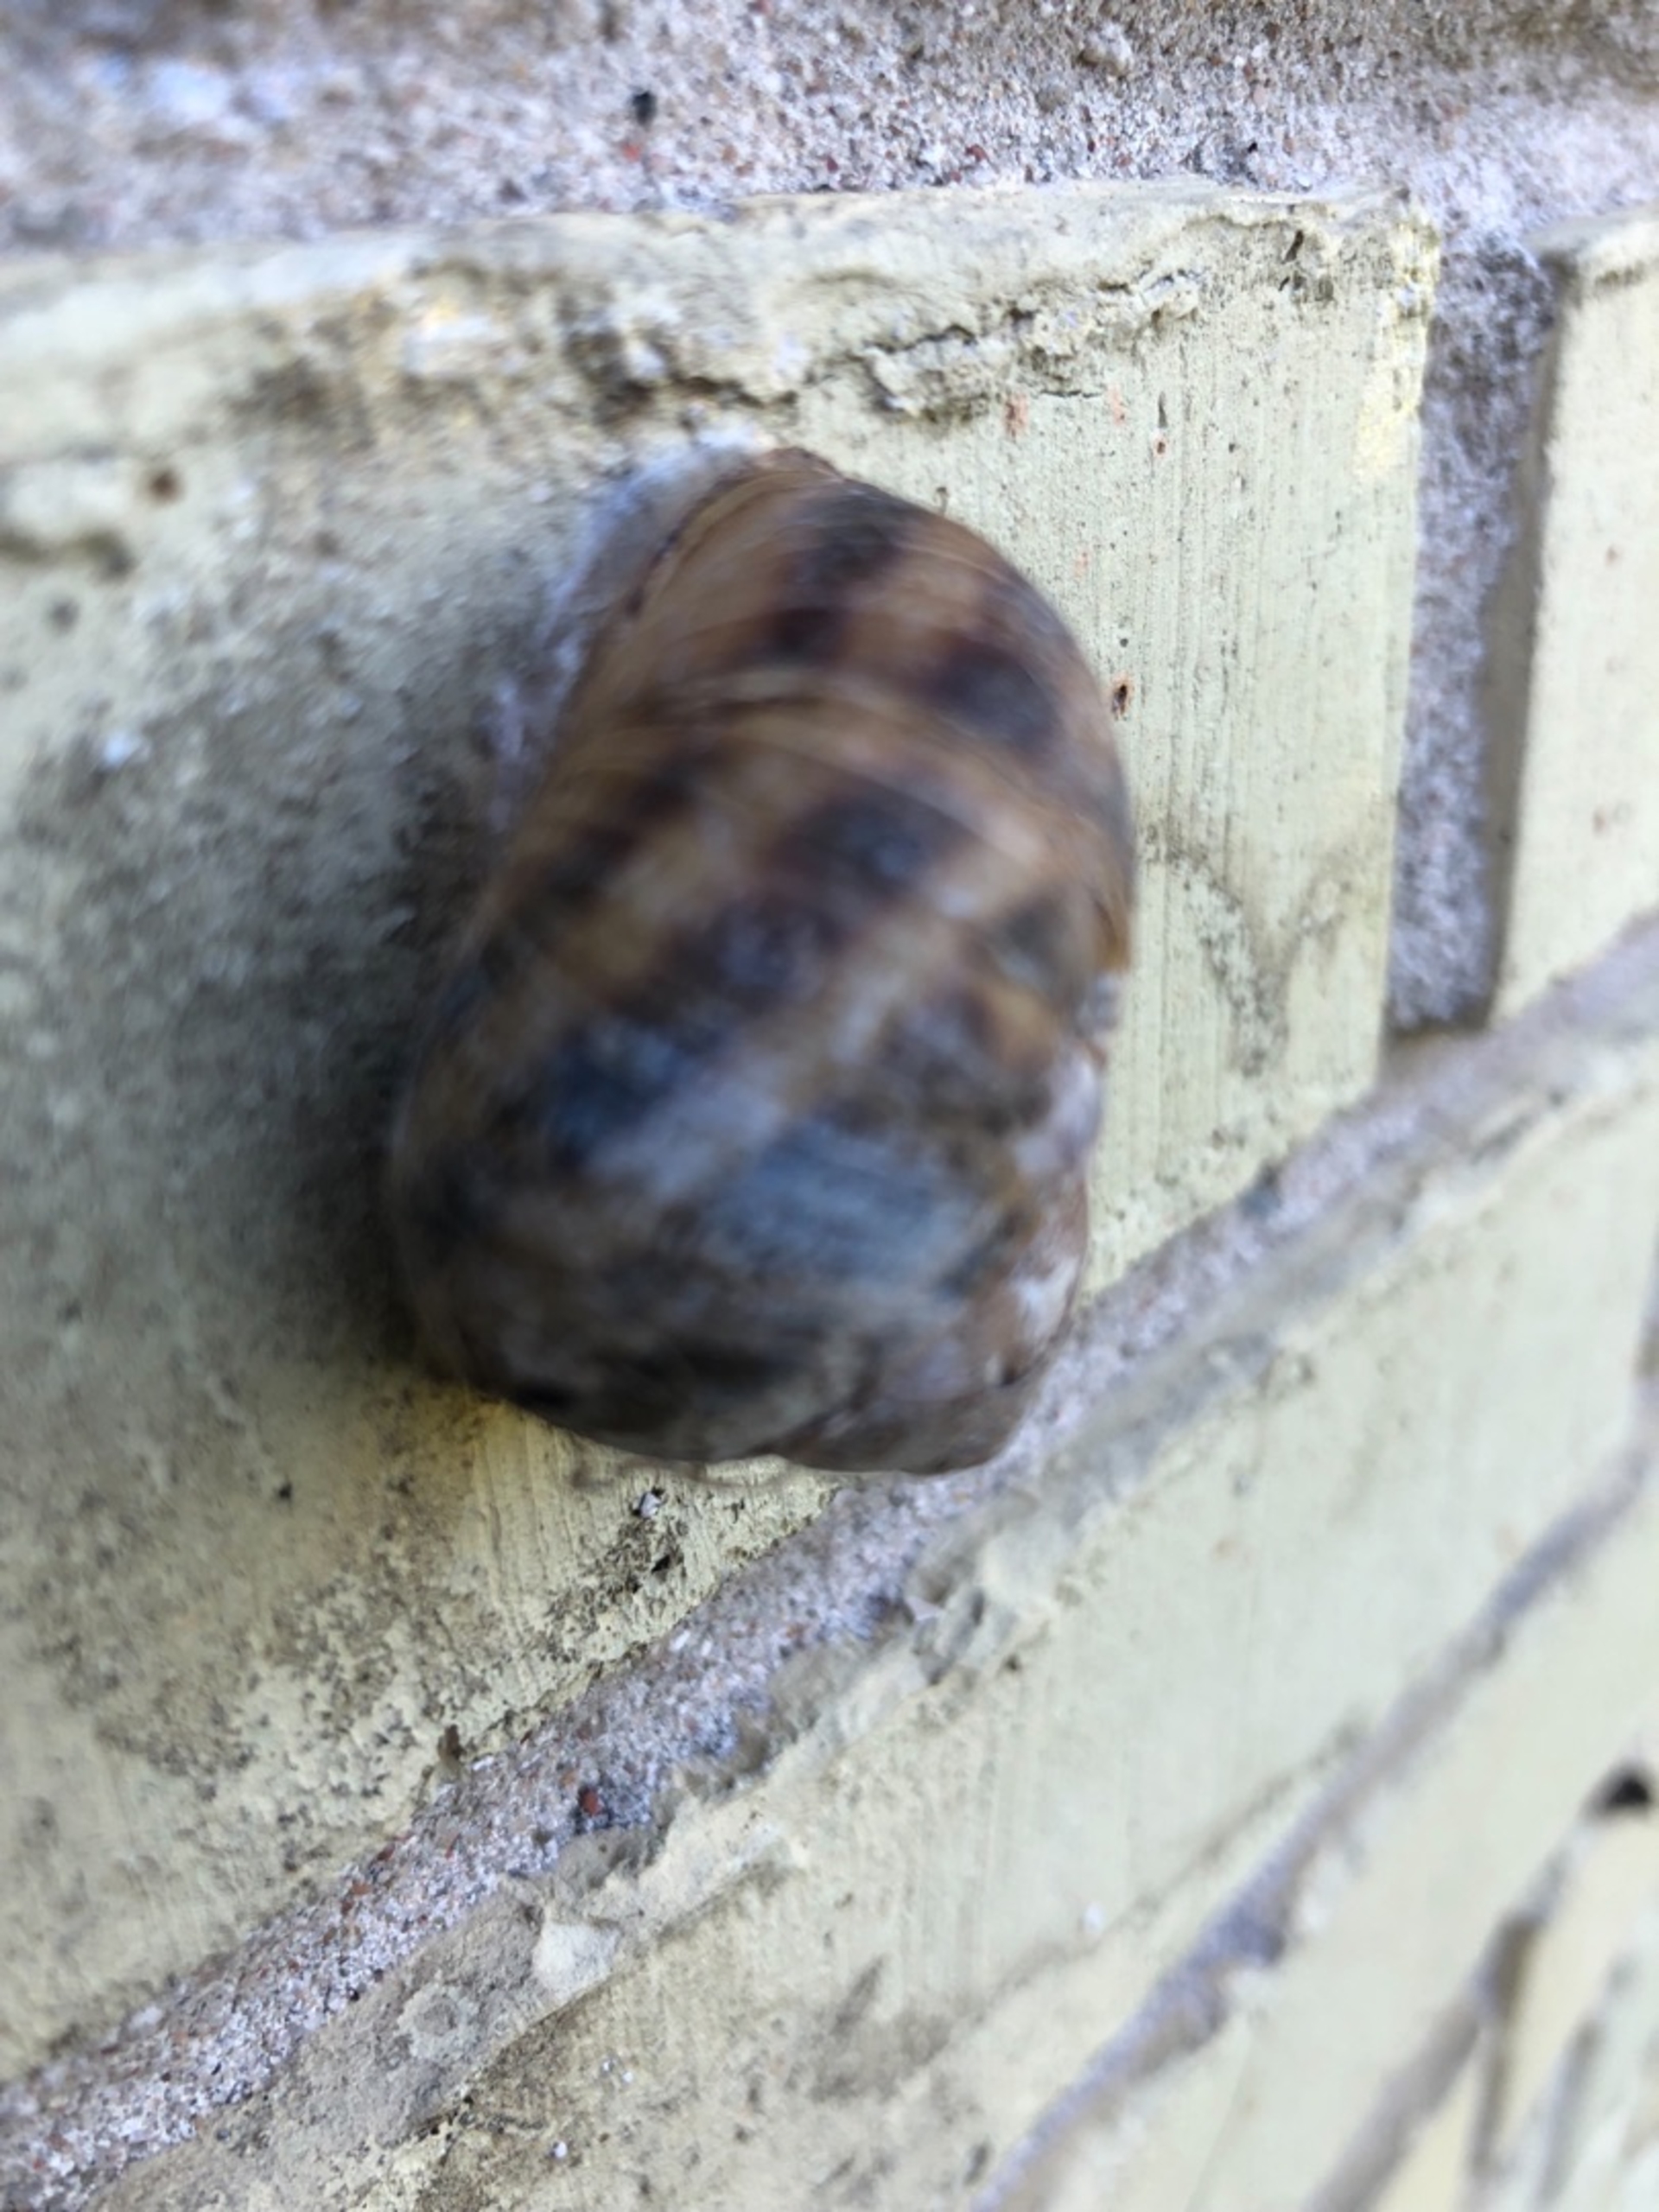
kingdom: Animalia
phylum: Mollusca
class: Gastropoda
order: Stylommatophora
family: Helicidae
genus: Cornu
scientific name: Cornu aspersum
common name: Plettet voldsnegl
